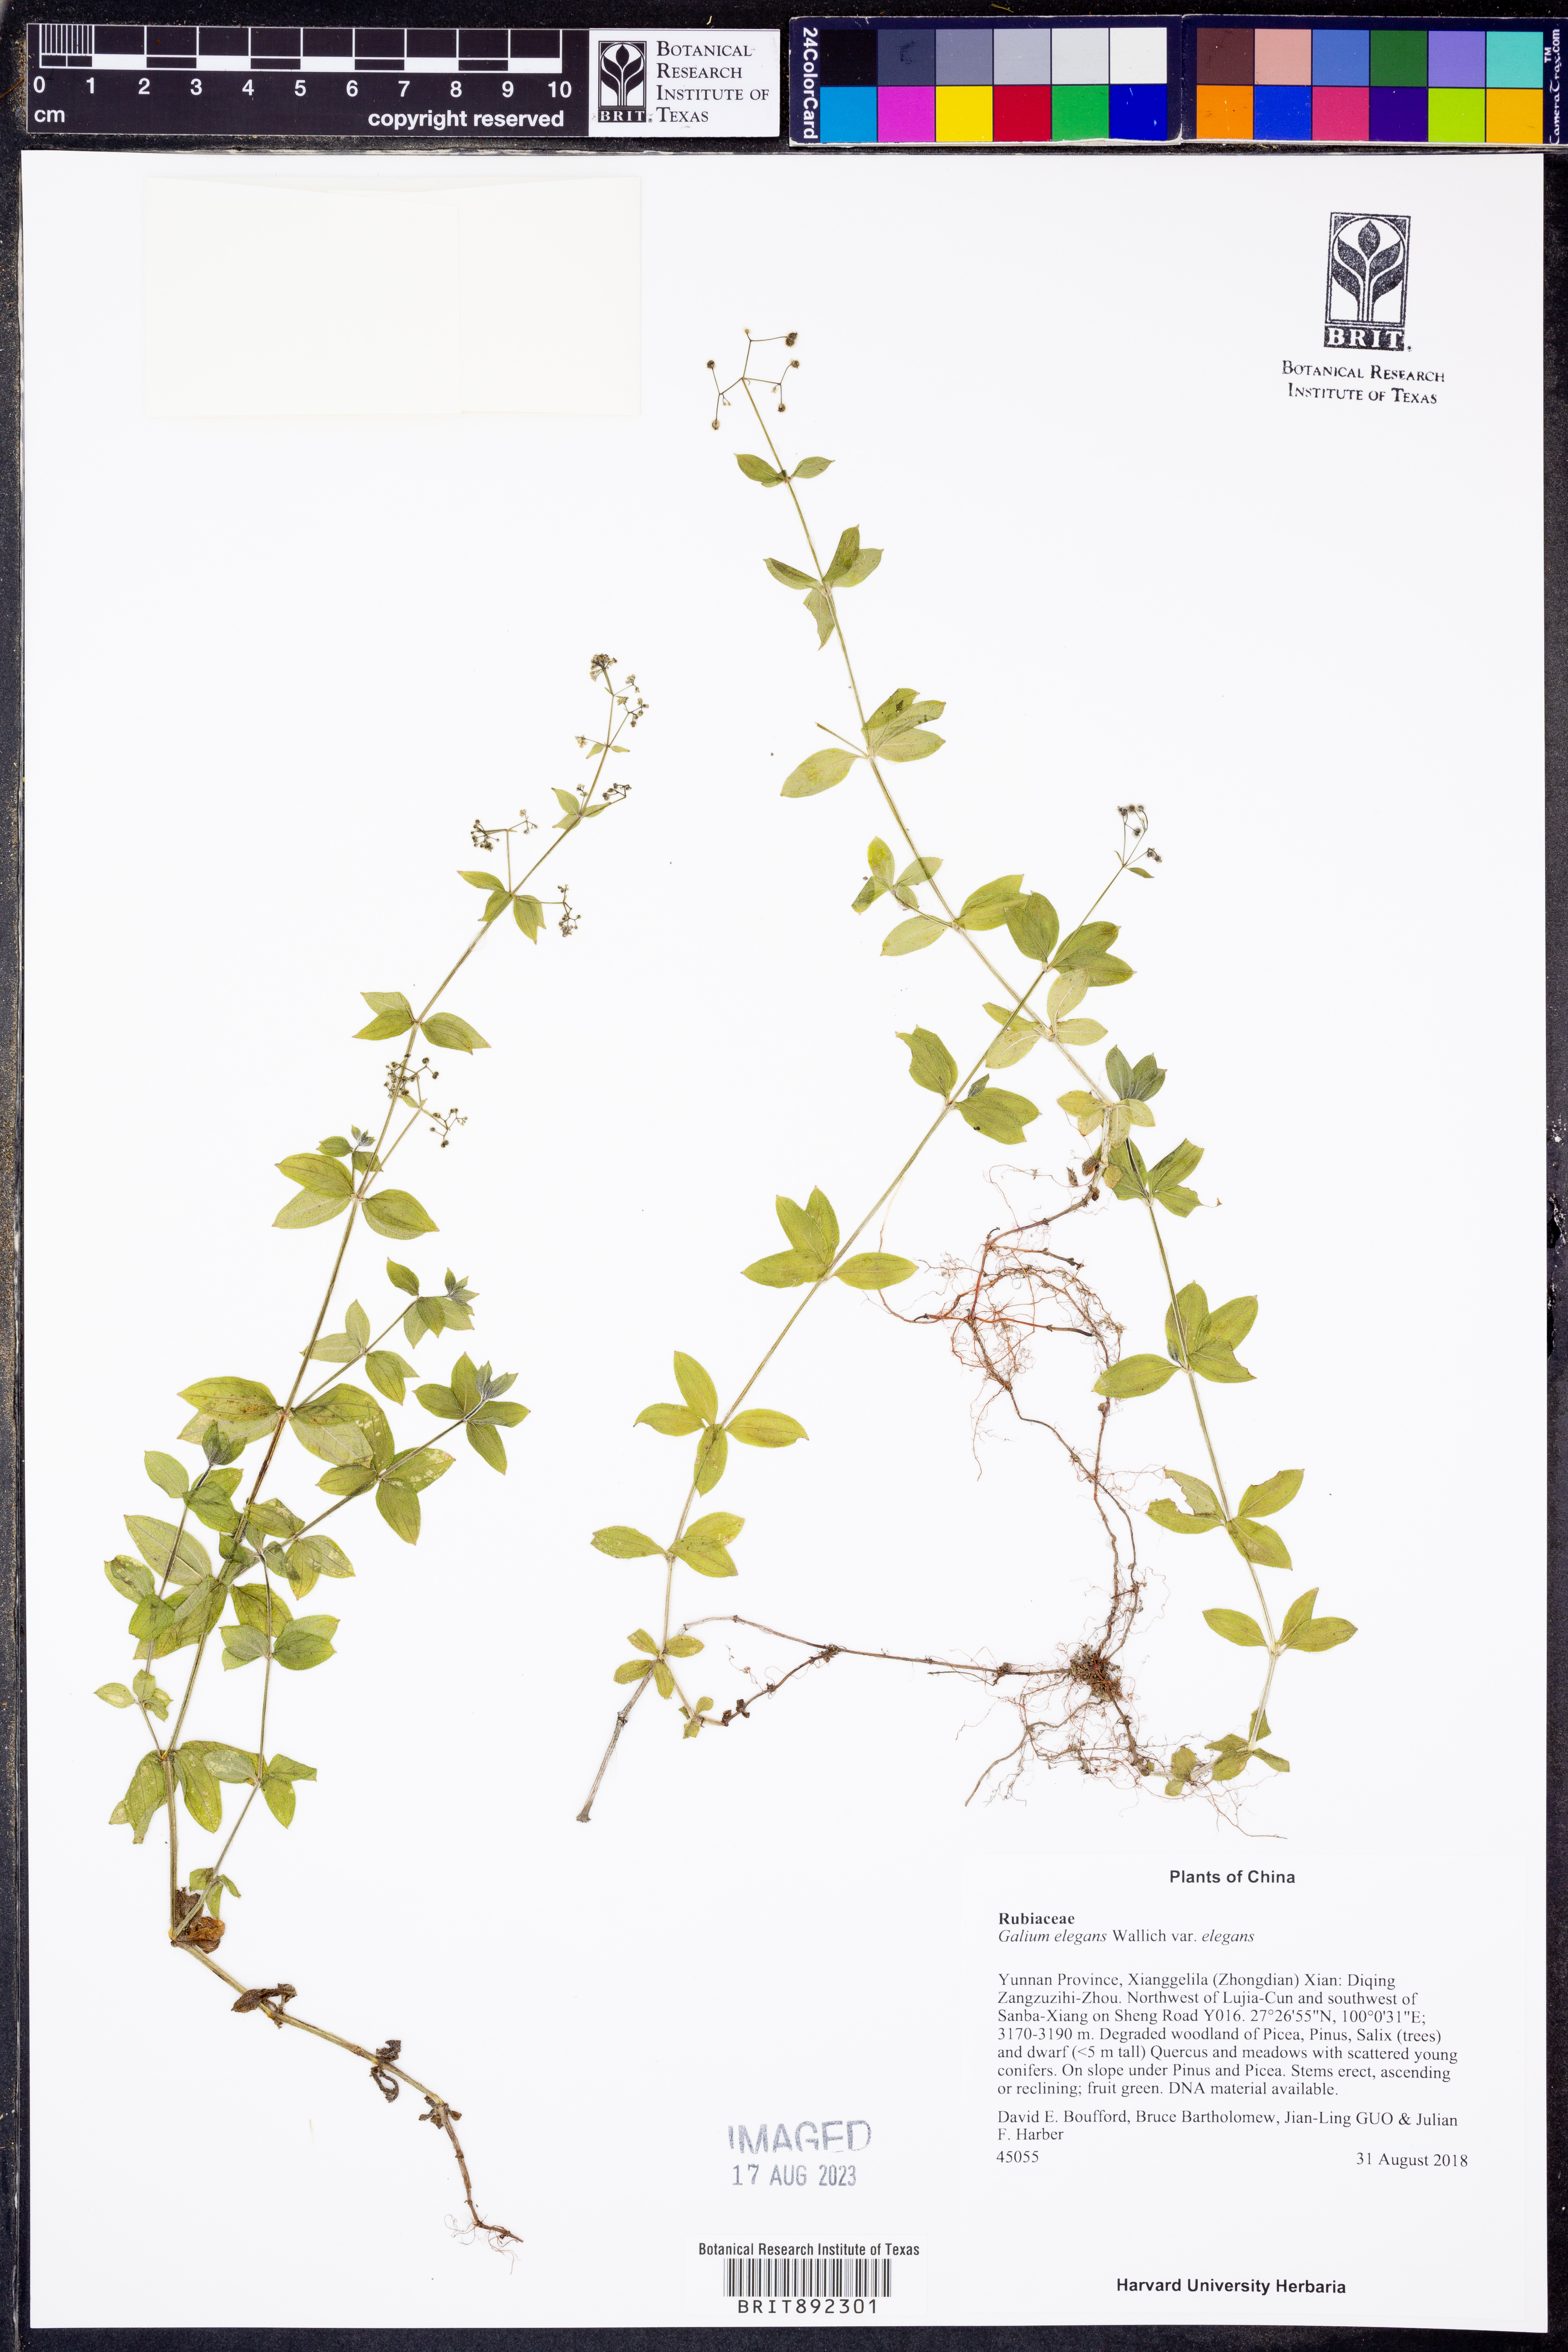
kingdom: Plantae
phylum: Tracheophyta
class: Magnoliopsida
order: Gentianales
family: Rubiaceae
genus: Galium
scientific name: Galium elegans
